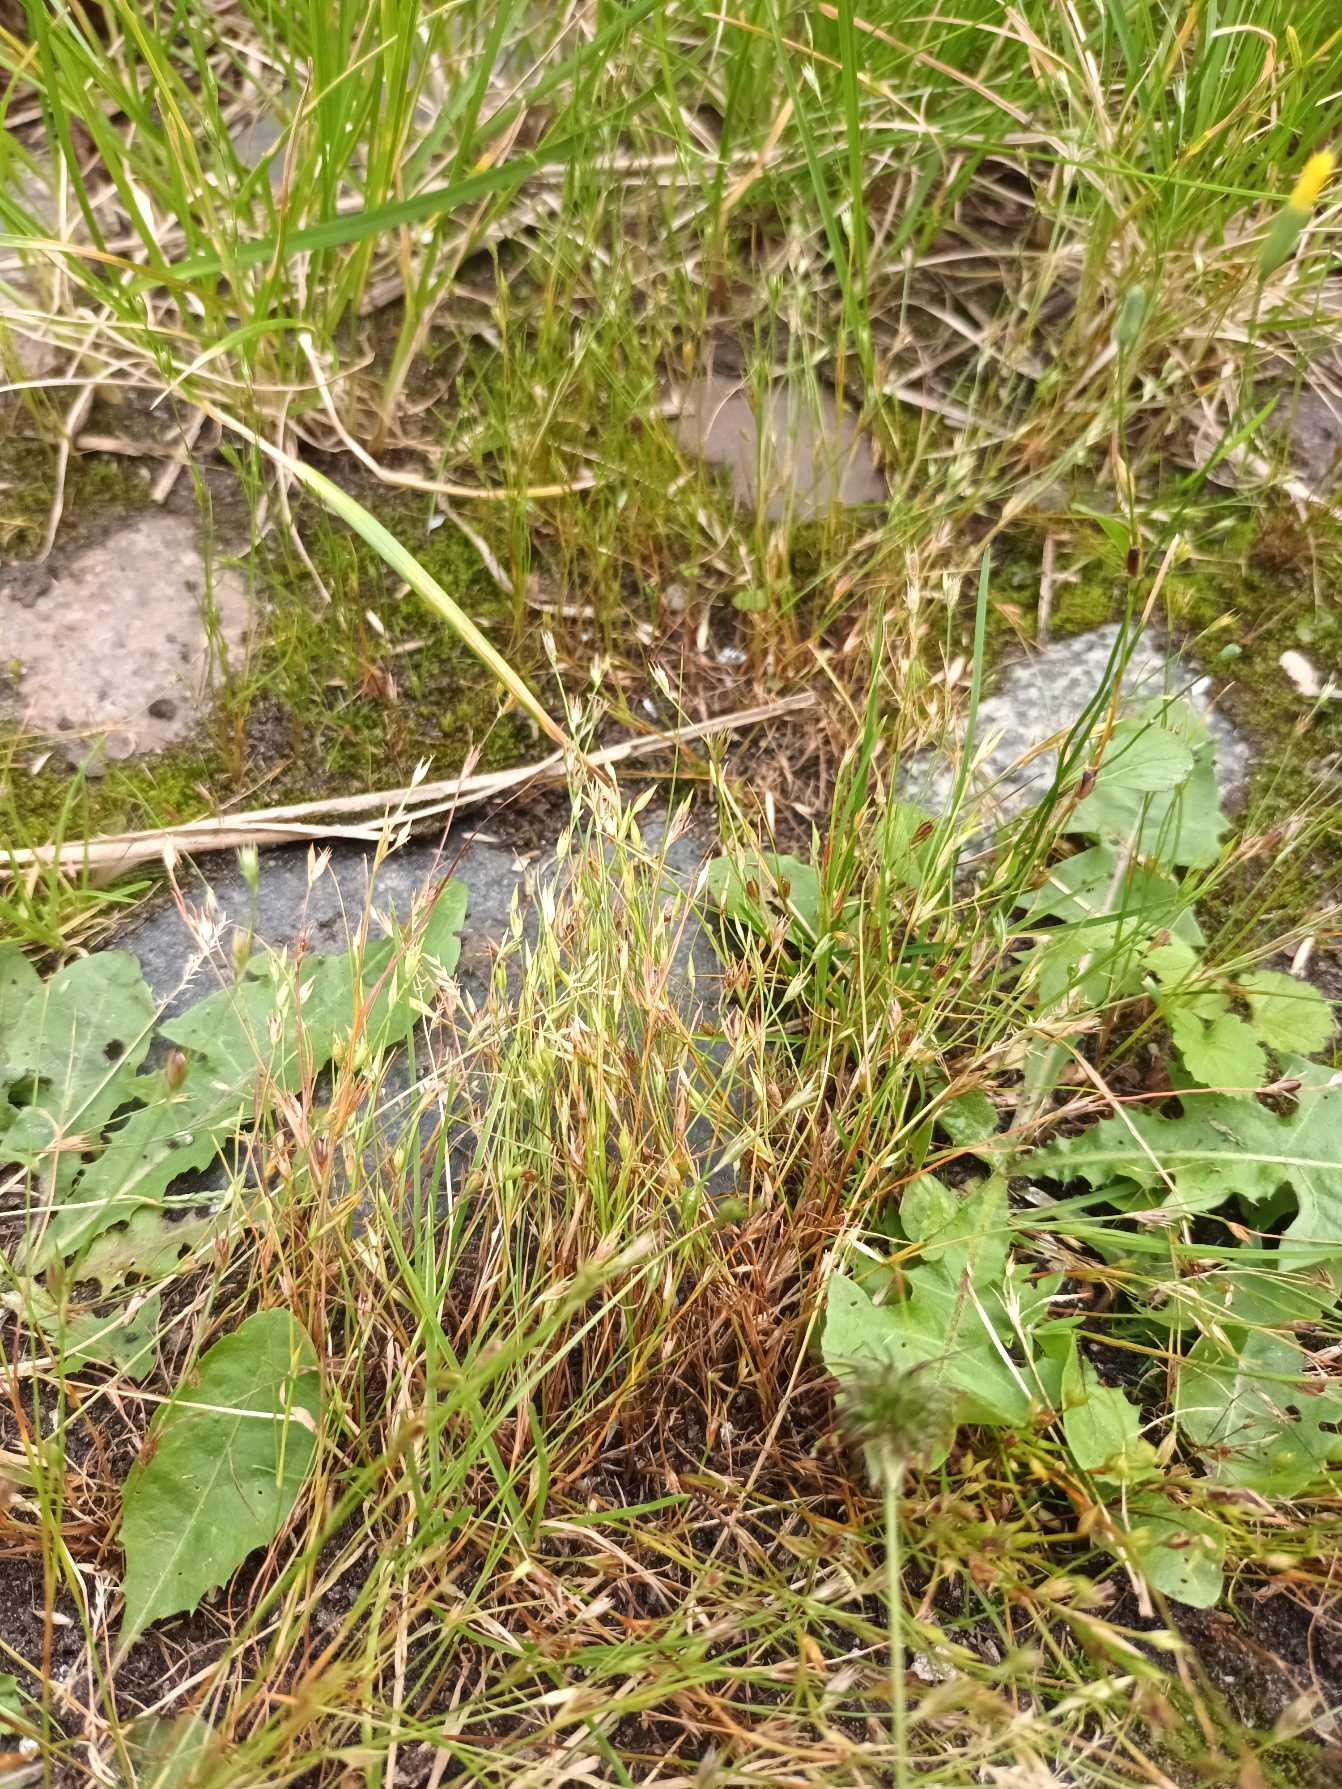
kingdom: Plantae
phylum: Tracheophyta
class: Liliopsida
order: Poales
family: Juncaceae
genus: Juncus
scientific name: Juncus bufonius
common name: Tudse-siv
